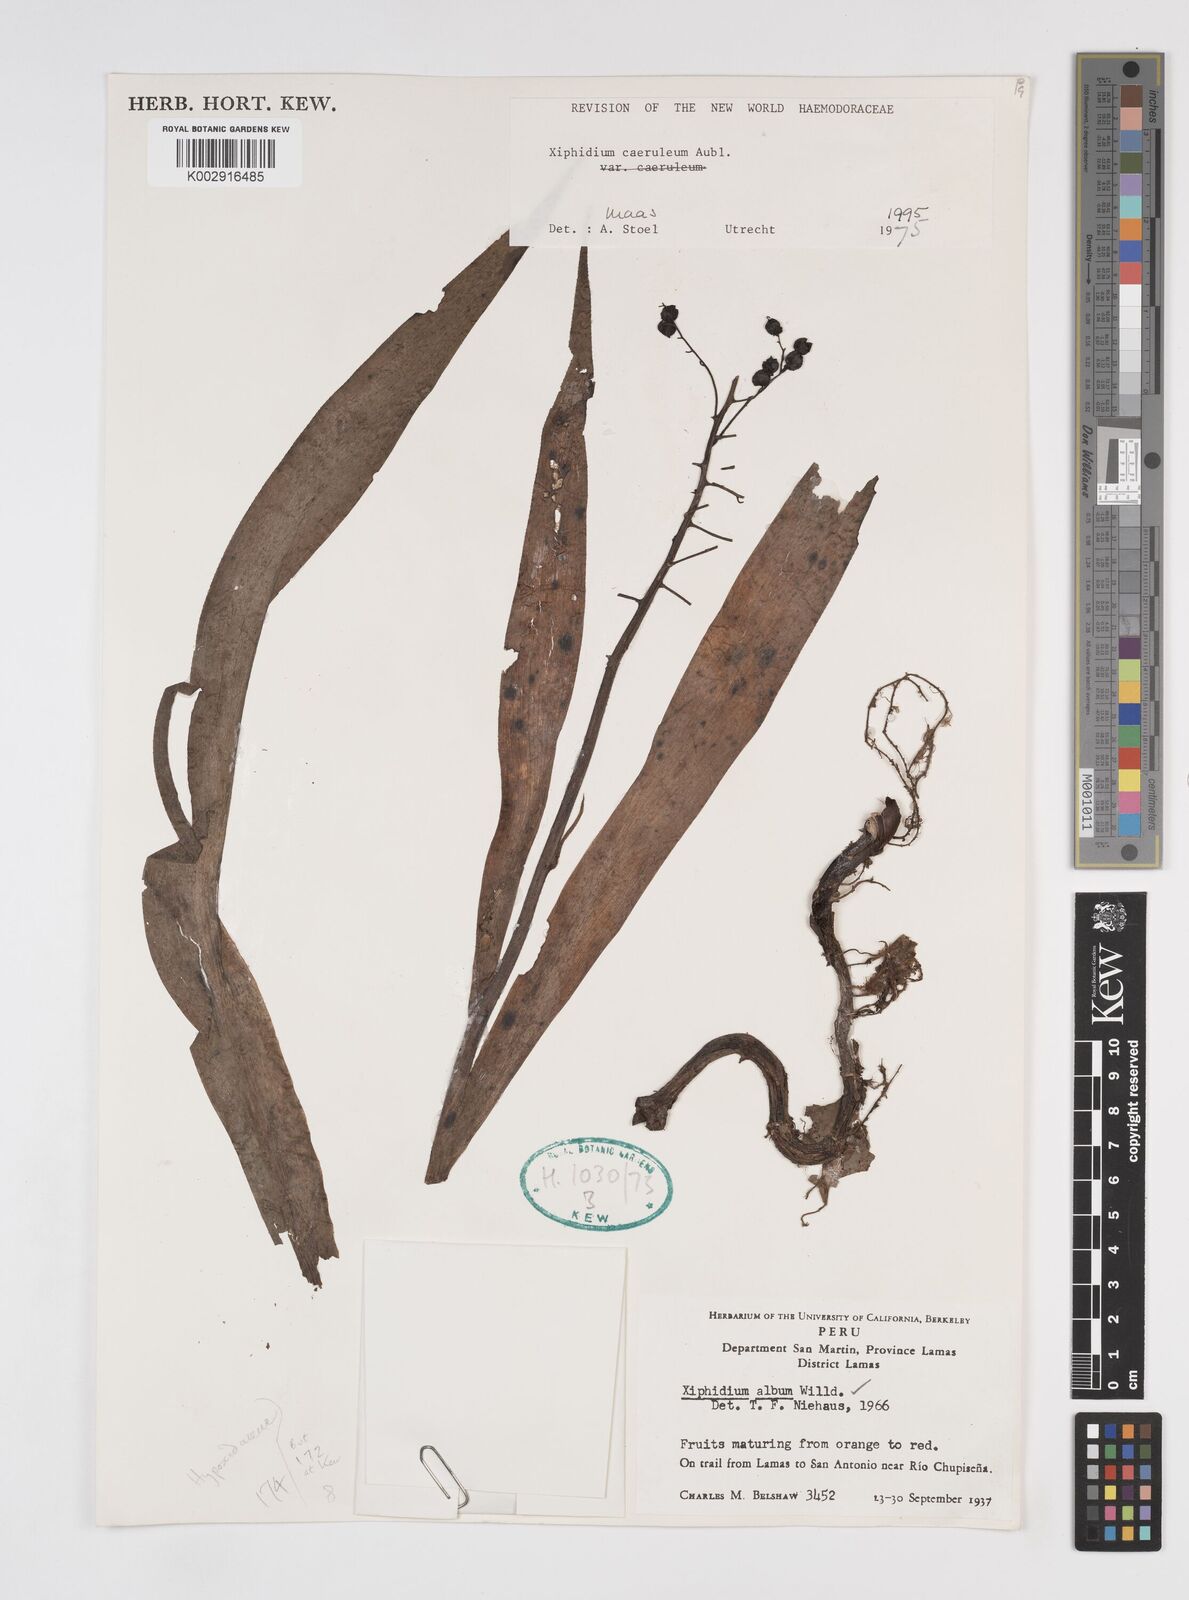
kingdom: Plantae
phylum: Tracheophyta
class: Liliopsida
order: Commelinales
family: Haemodoraceae
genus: Xiphidium
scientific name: Xiphidium caeruleum
